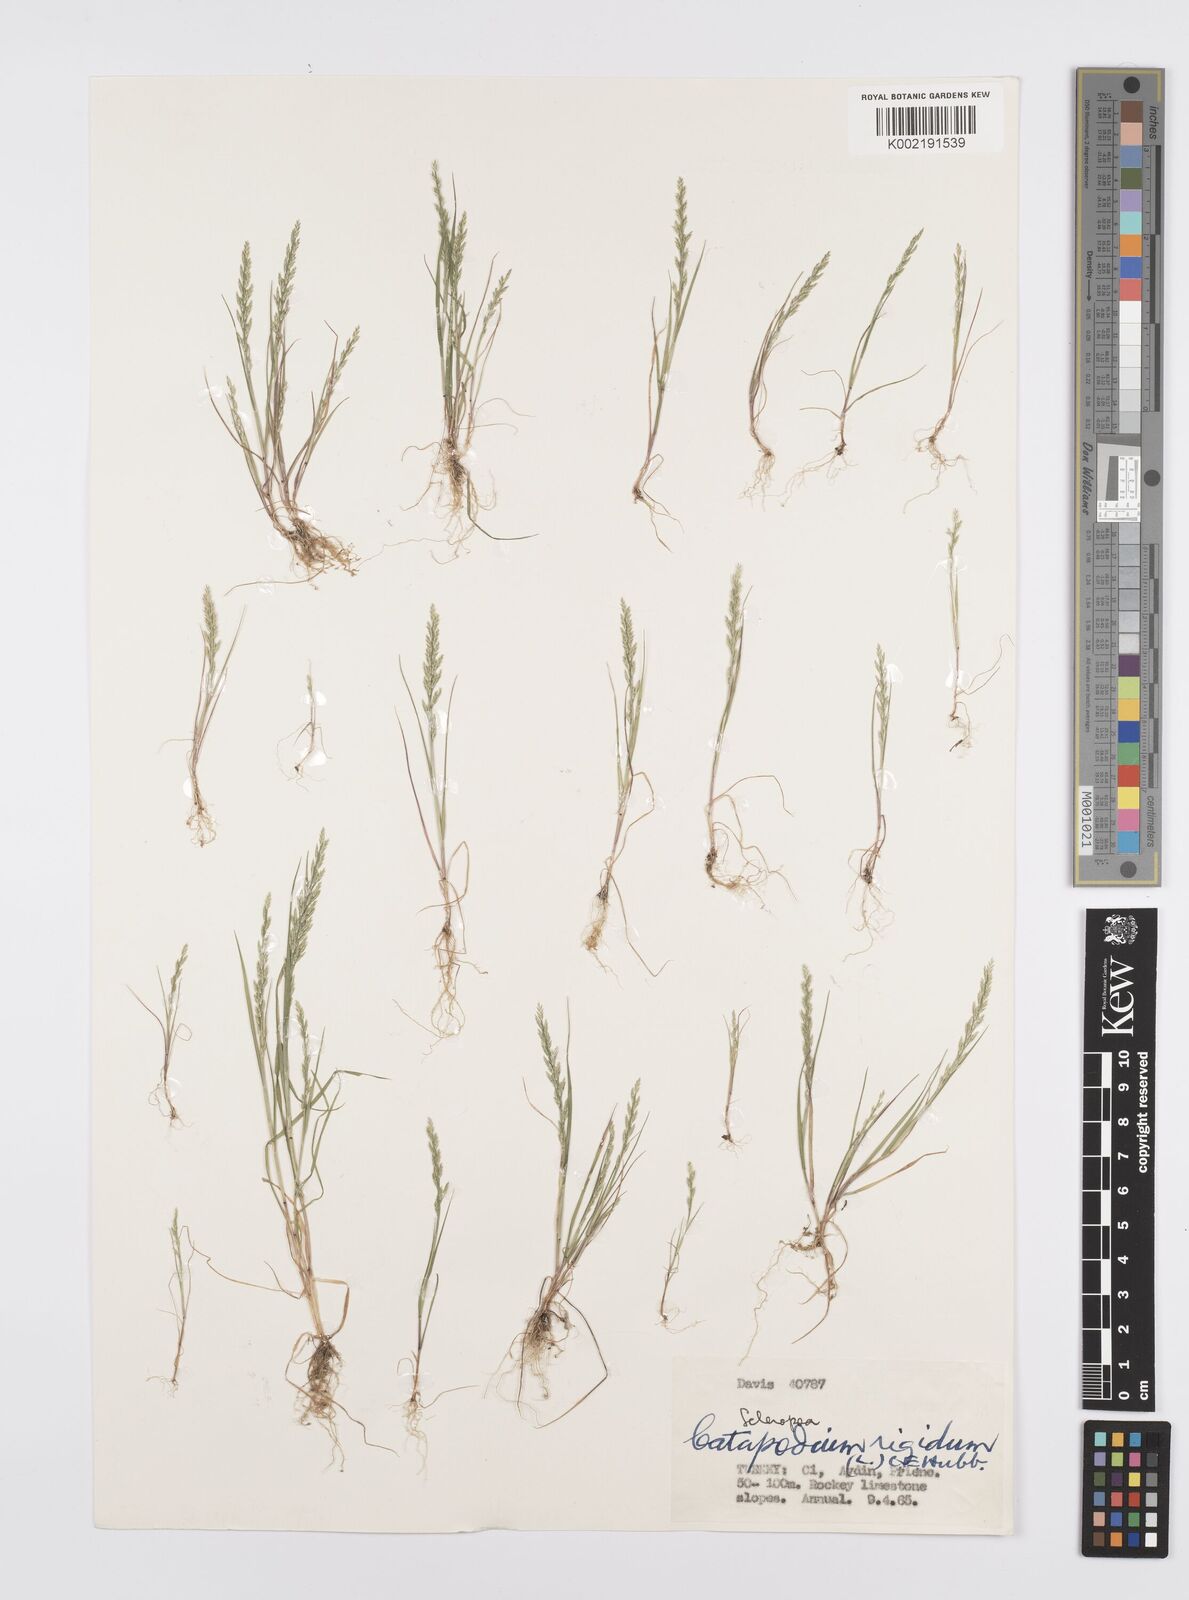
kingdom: Plantae
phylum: Tracheophyta
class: Liliopsida
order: Poales
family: Poaceae
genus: Catapodium
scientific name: Catapodium rigidum
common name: Fern-grass
